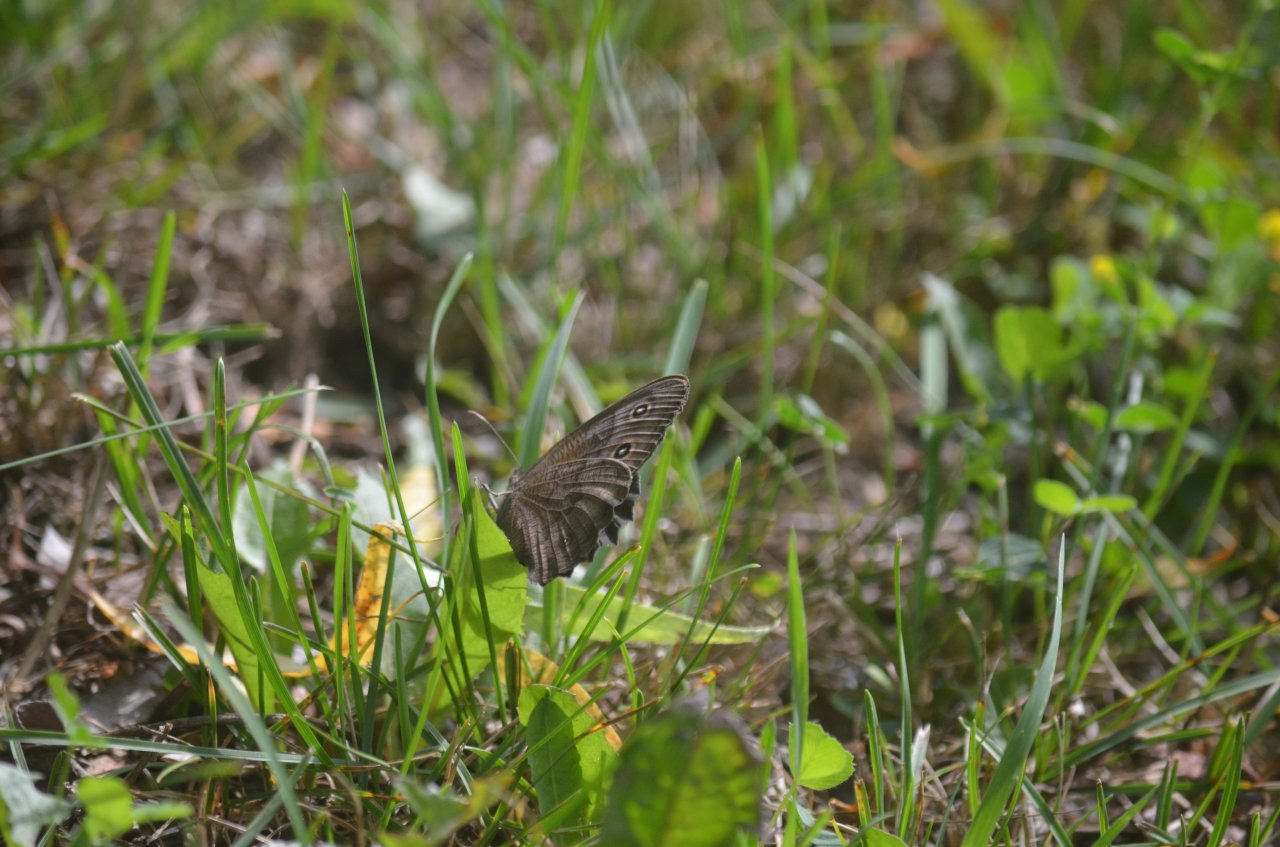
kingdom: Animalia
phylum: Arthropoda
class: Insecta
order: Lepidoptera
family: Nymphalidae
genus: Cercyonis
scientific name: Cercyonis pegala
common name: Common Wood-Nymph
